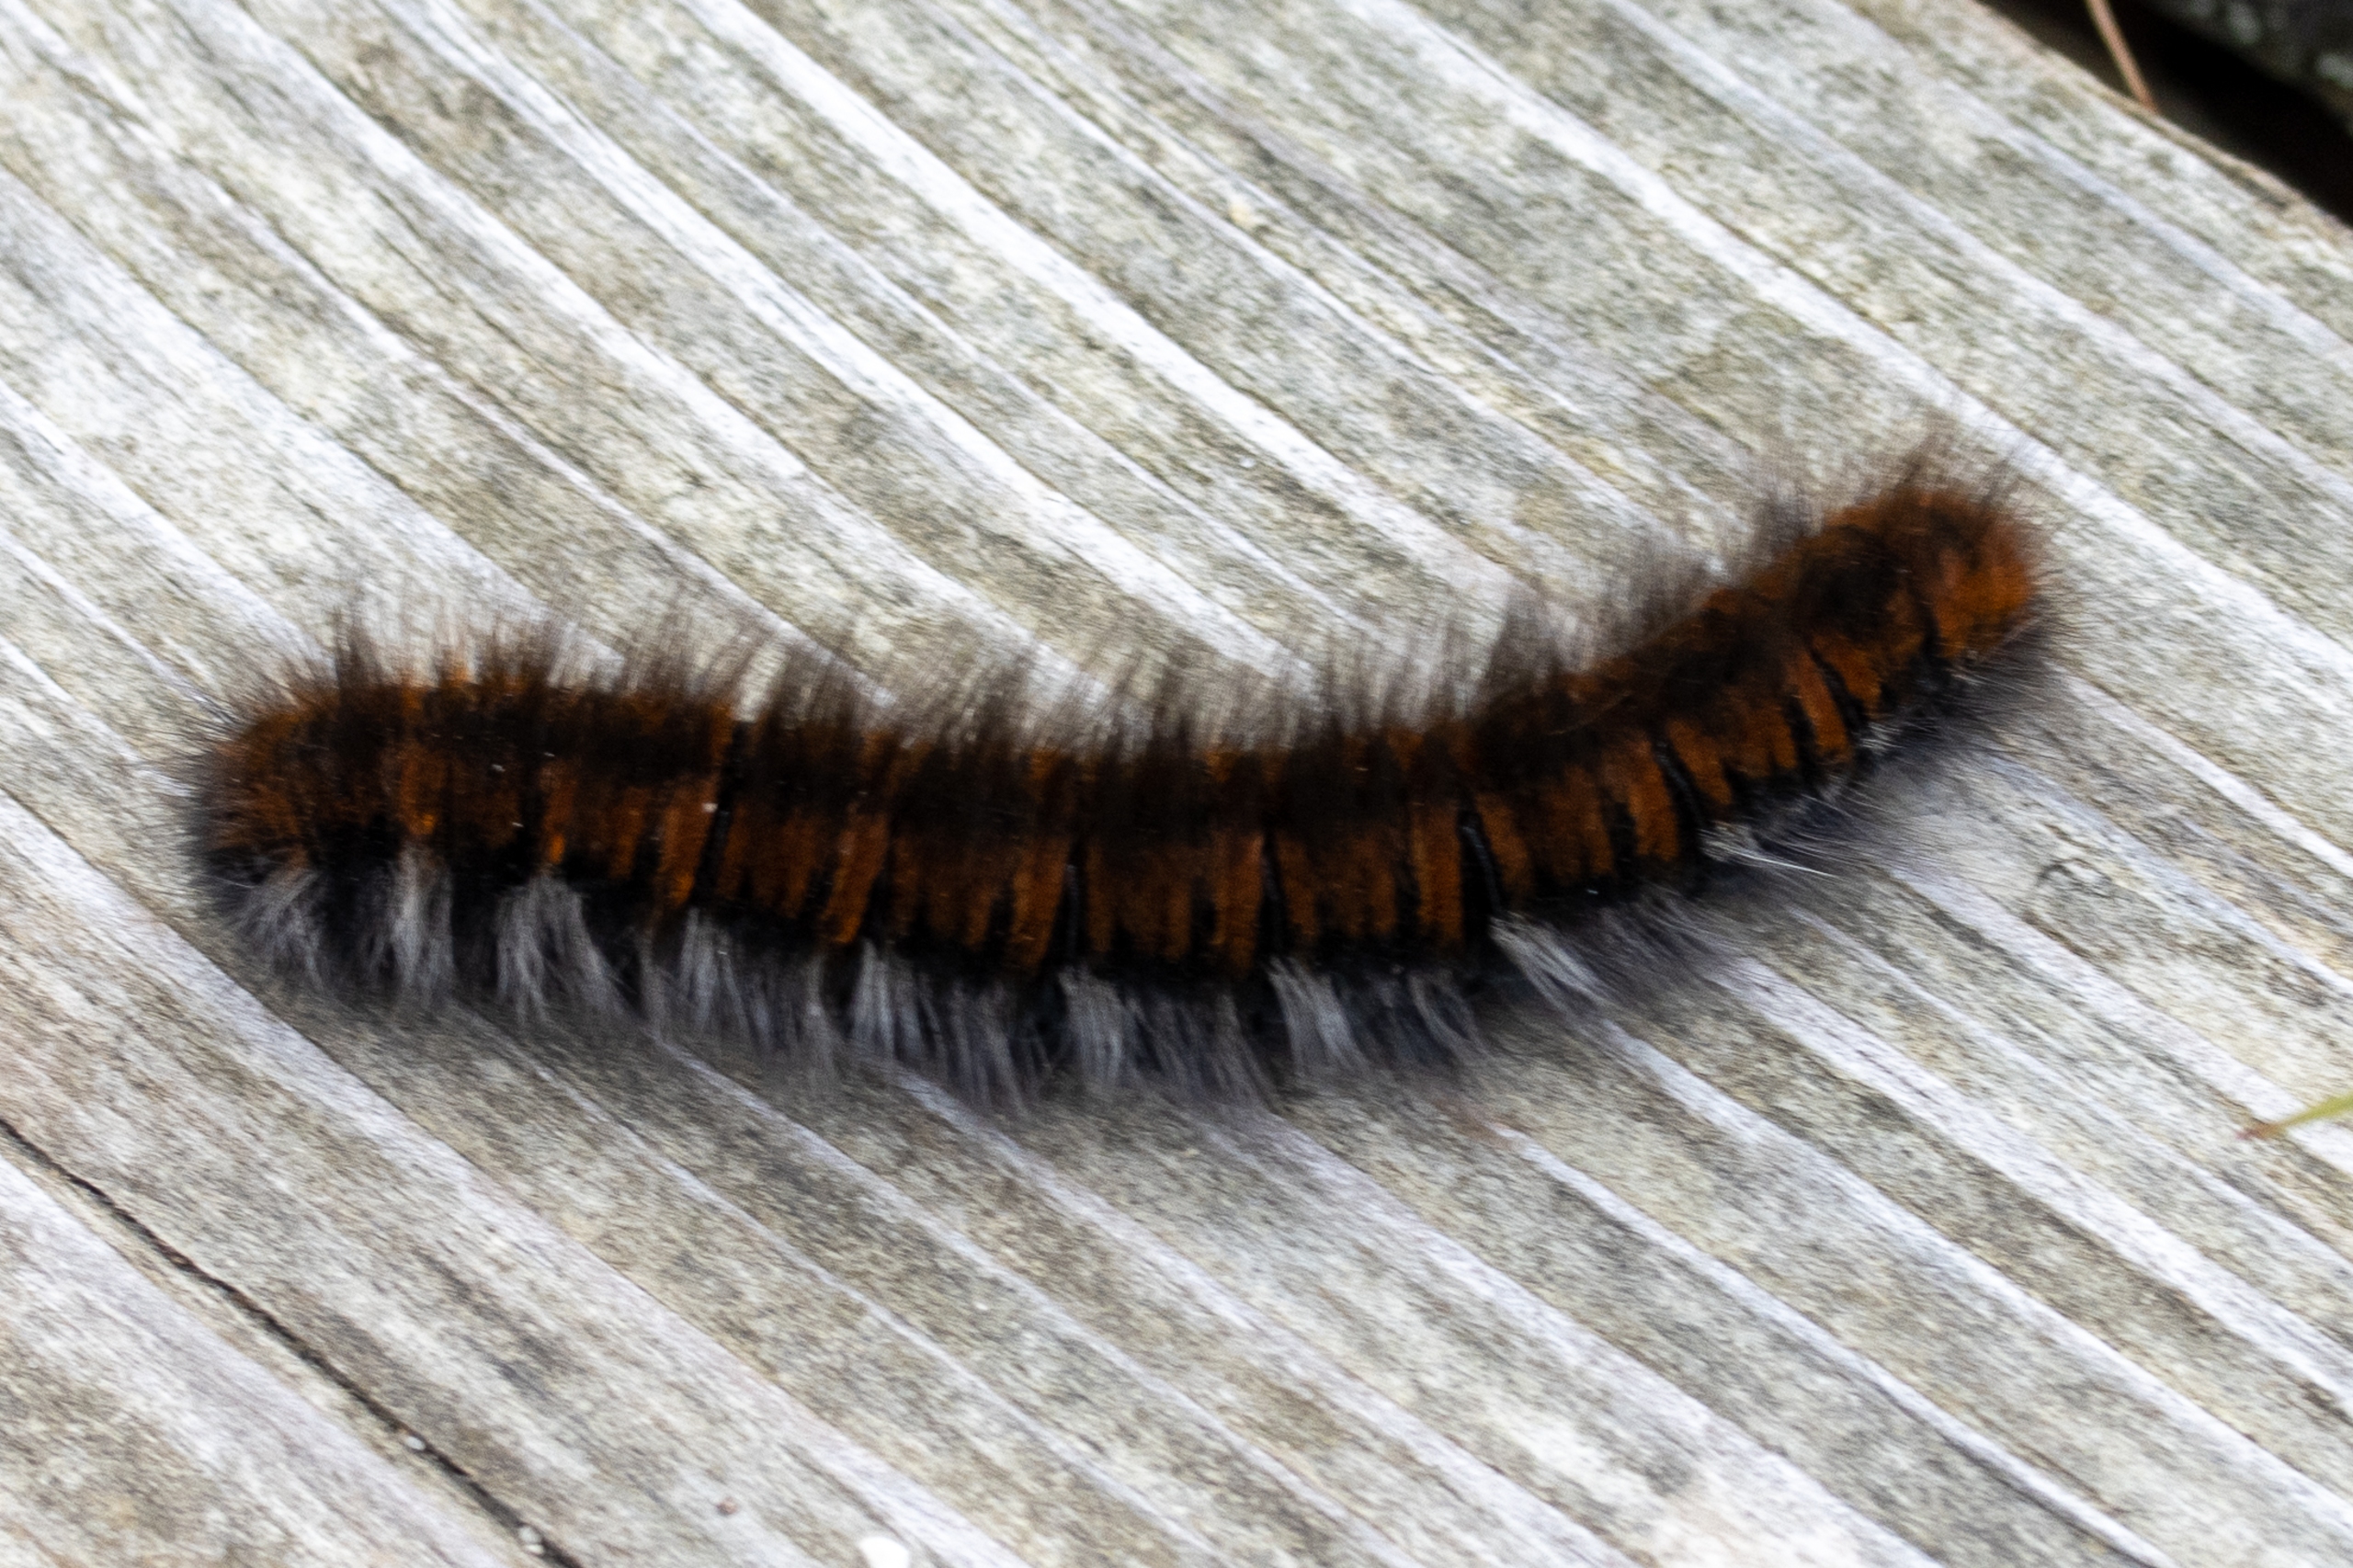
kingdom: Animalia
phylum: Arthropoda
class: Insecta
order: Lepidoptera
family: Lasiocampidae
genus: Macrothylacia
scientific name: Macrothylacia rubi
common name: Brombærspinder
